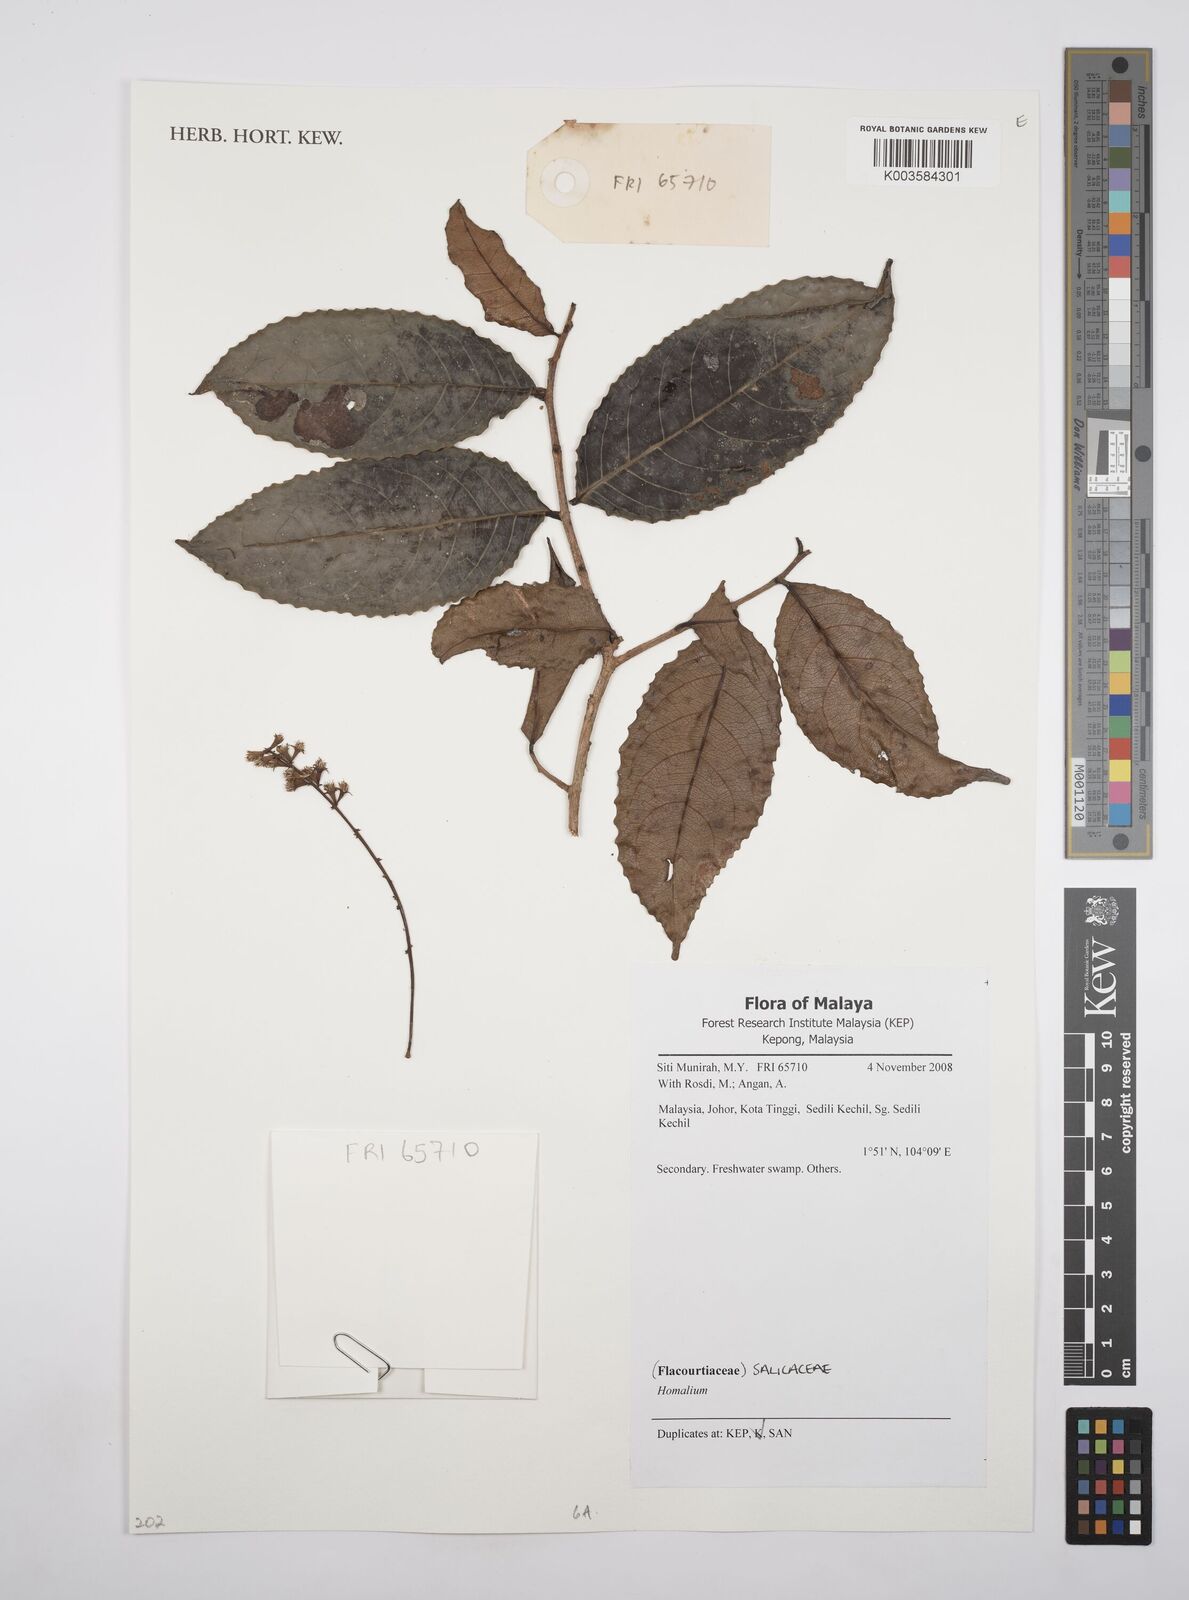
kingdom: Plantae
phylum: Tracheophyta
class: Magnoliopsida
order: Malpighiales
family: Salicaceae
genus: Homalium
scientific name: Homalium
